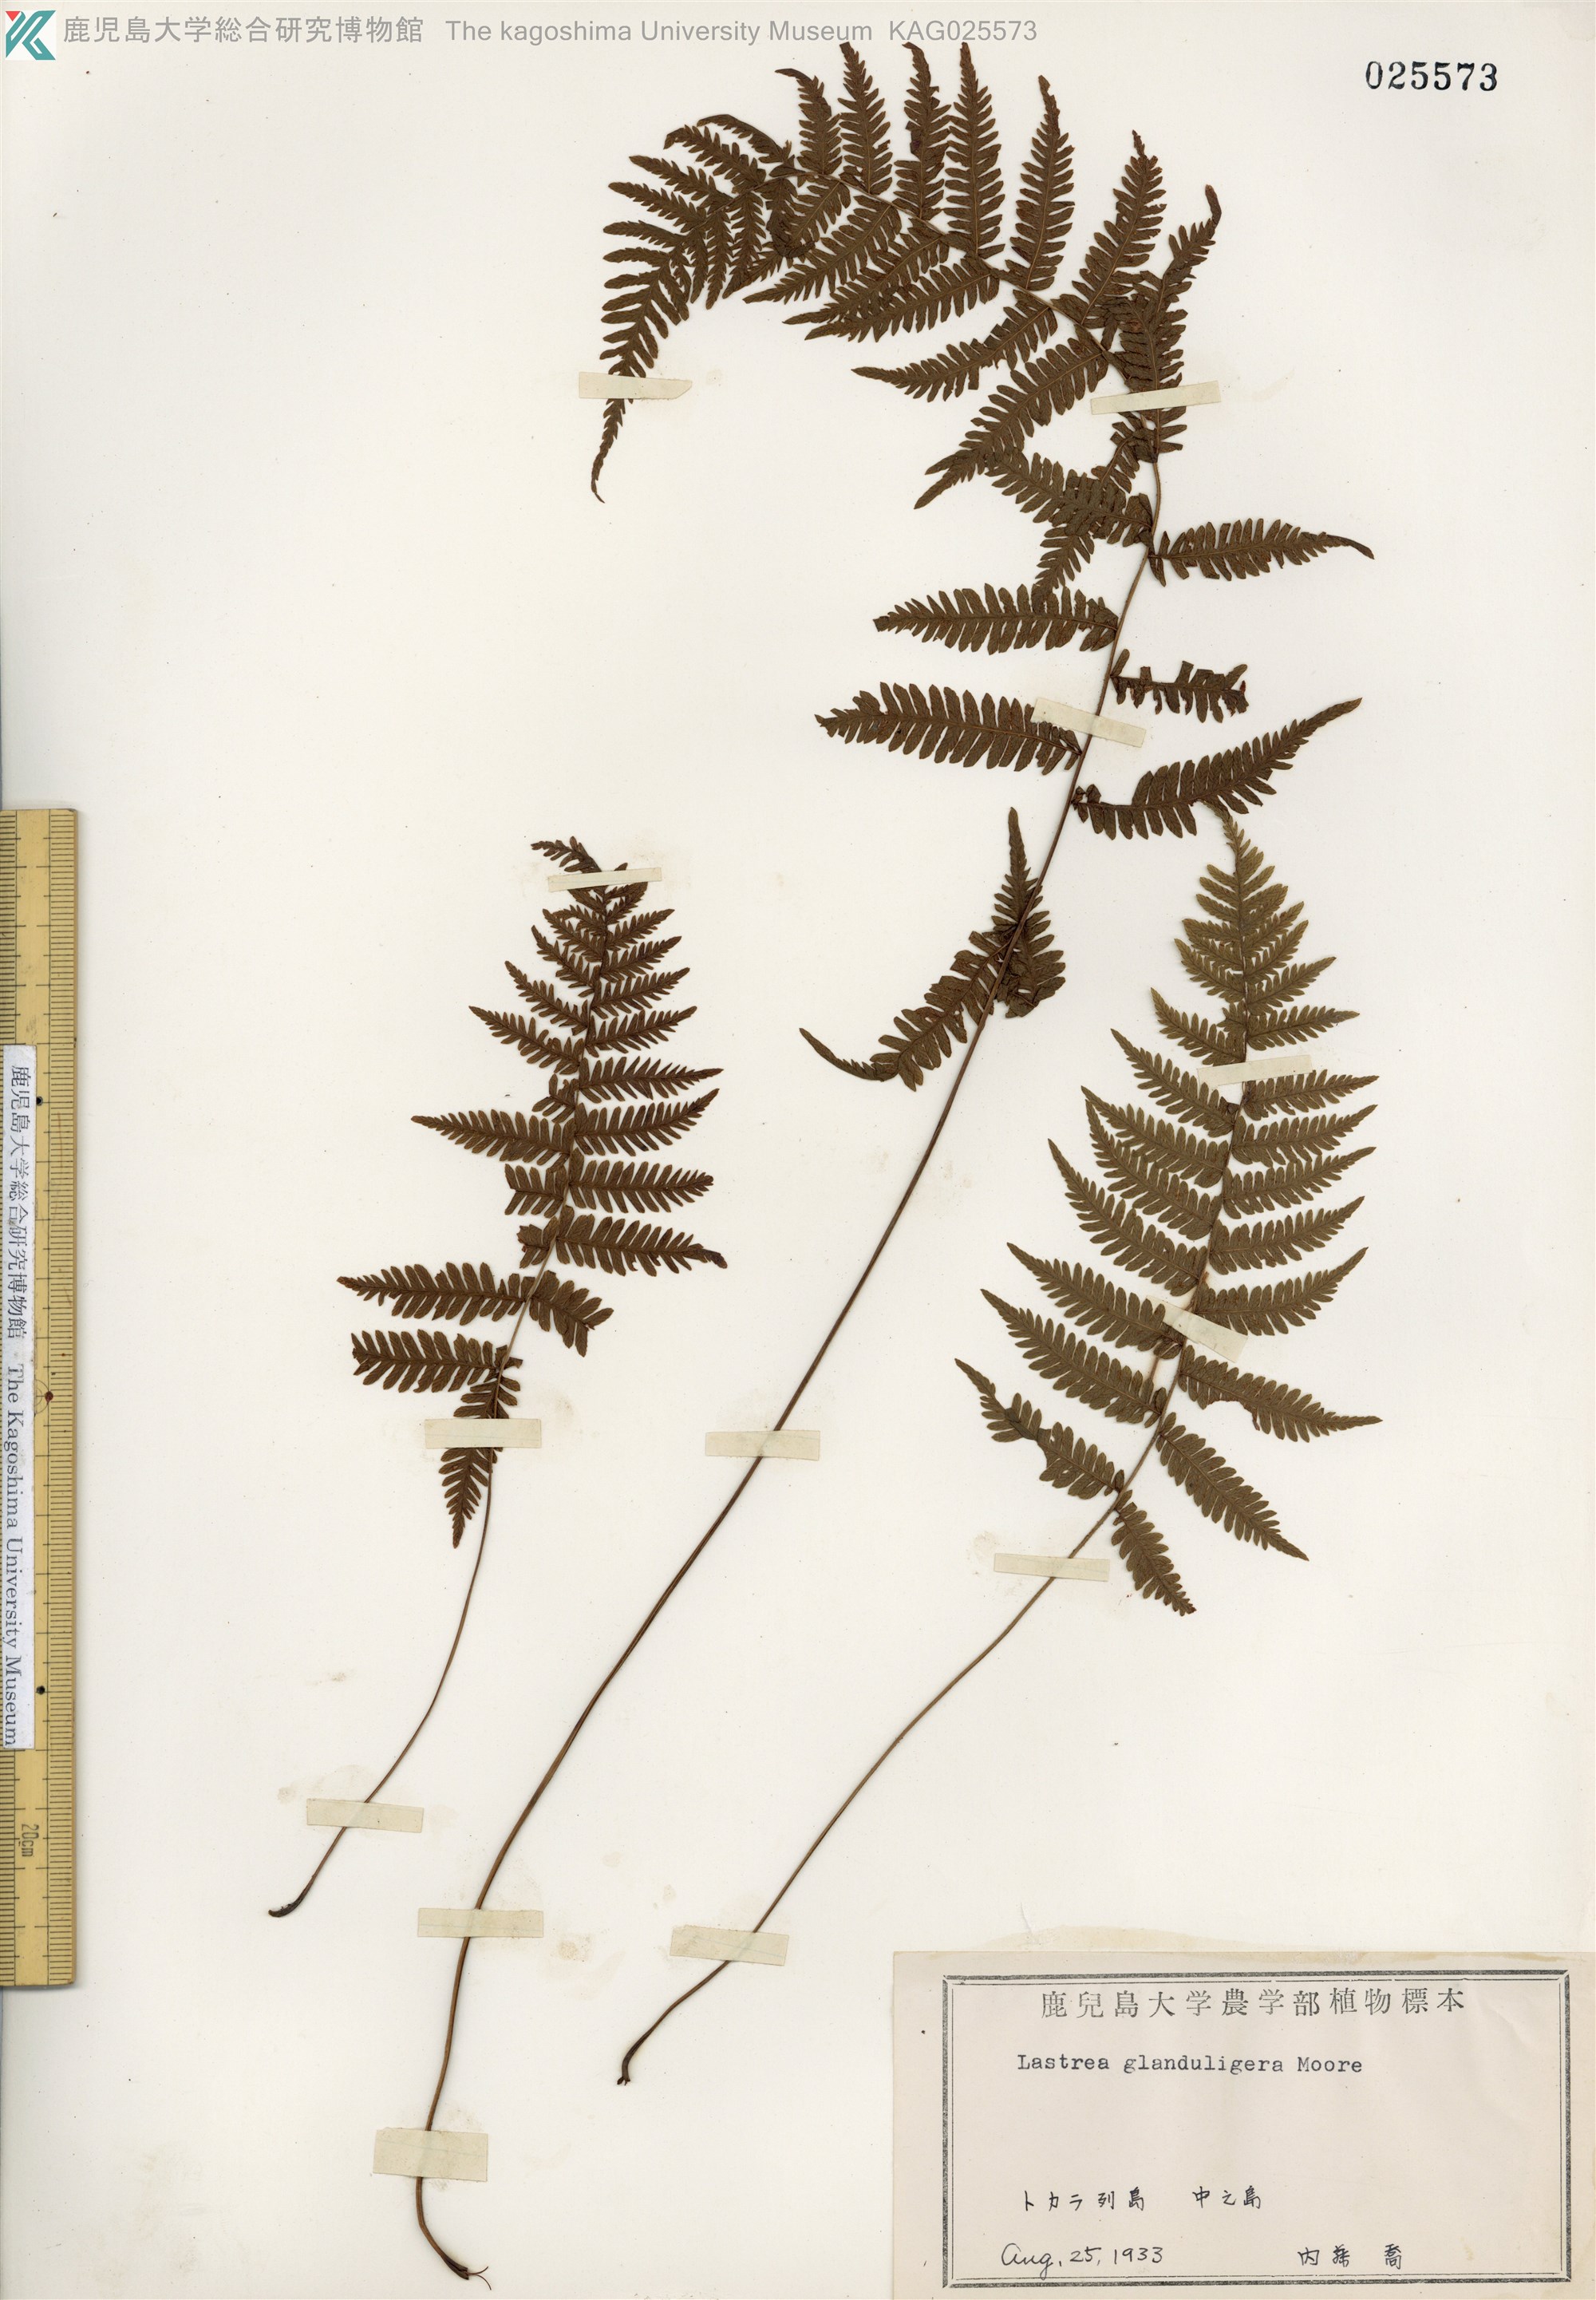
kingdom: Plantae
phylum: Tracheophyta
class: Polypodiopsida
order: Polypodiales
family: Thelypteridaceae
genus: Amauropelta
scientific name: Amauropelta glanduligera
